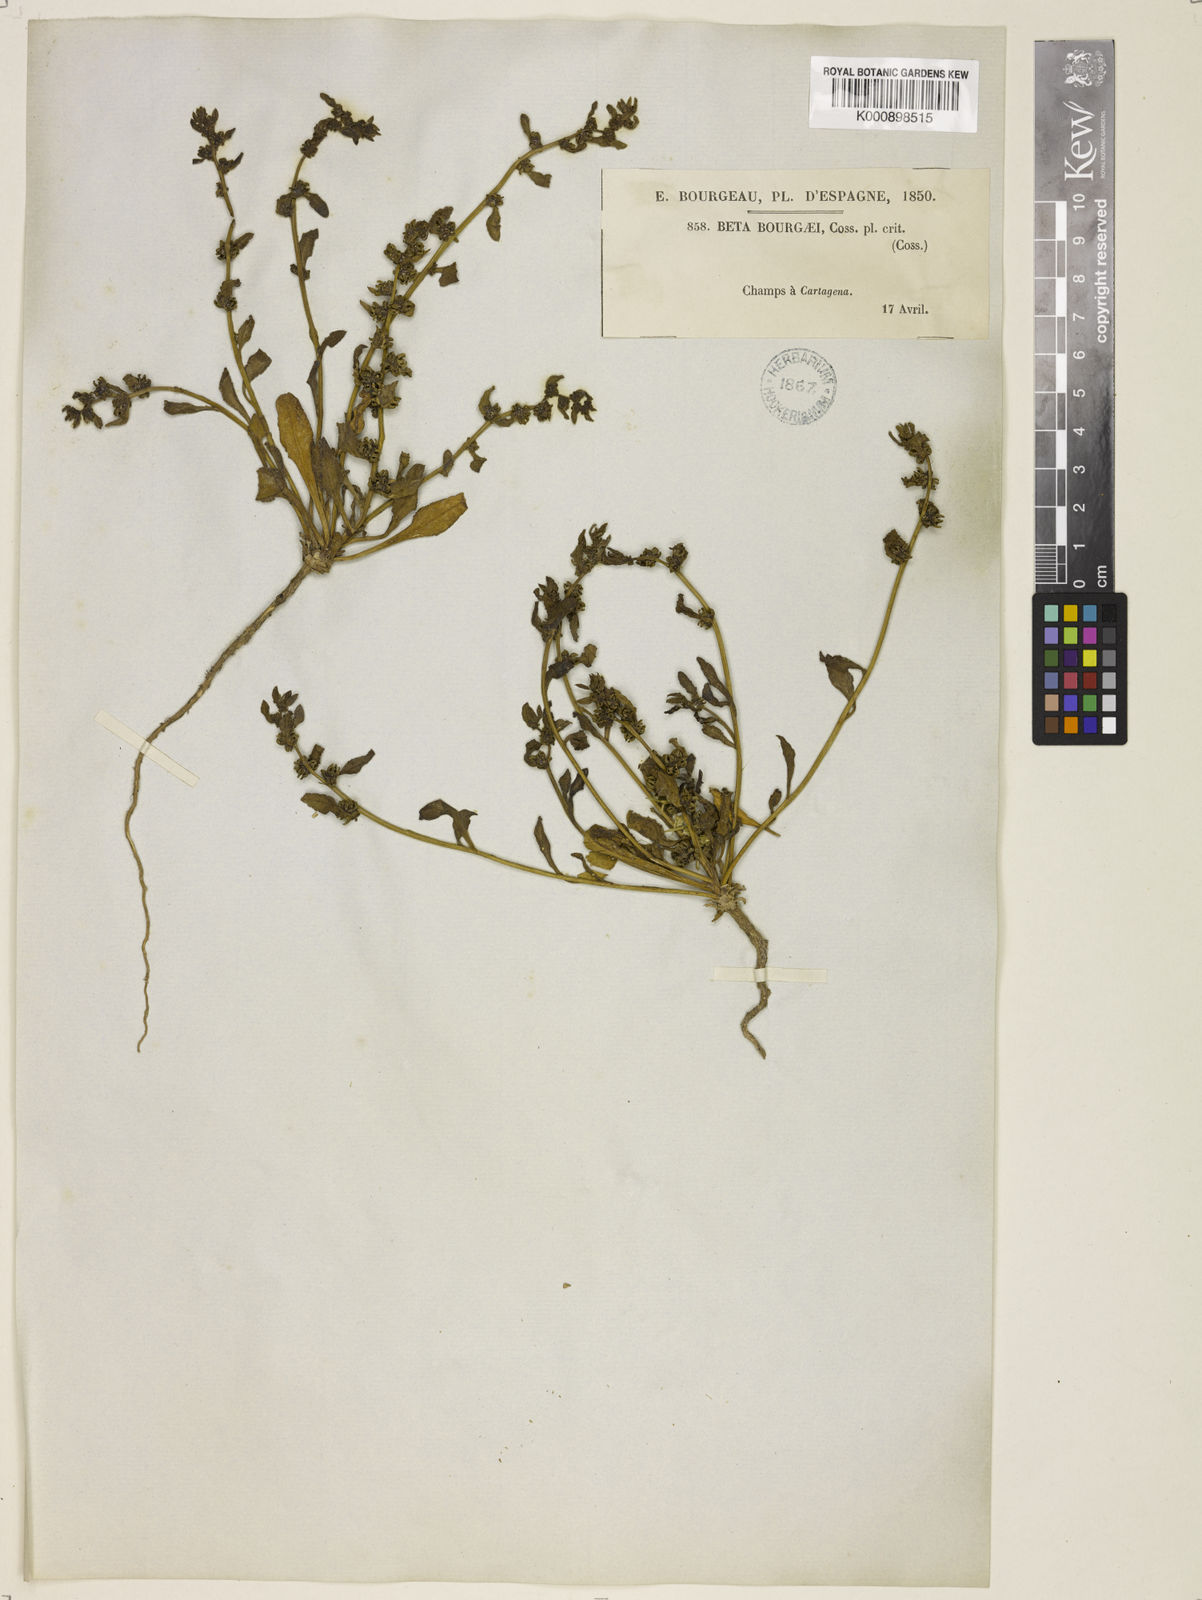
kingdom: Plantae
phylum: Tracheophyta
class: Magnoliopsida
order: Caryophyllales
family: Amaranthaceae
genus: Beta
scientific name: Beta macrocarpa
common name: Beet
